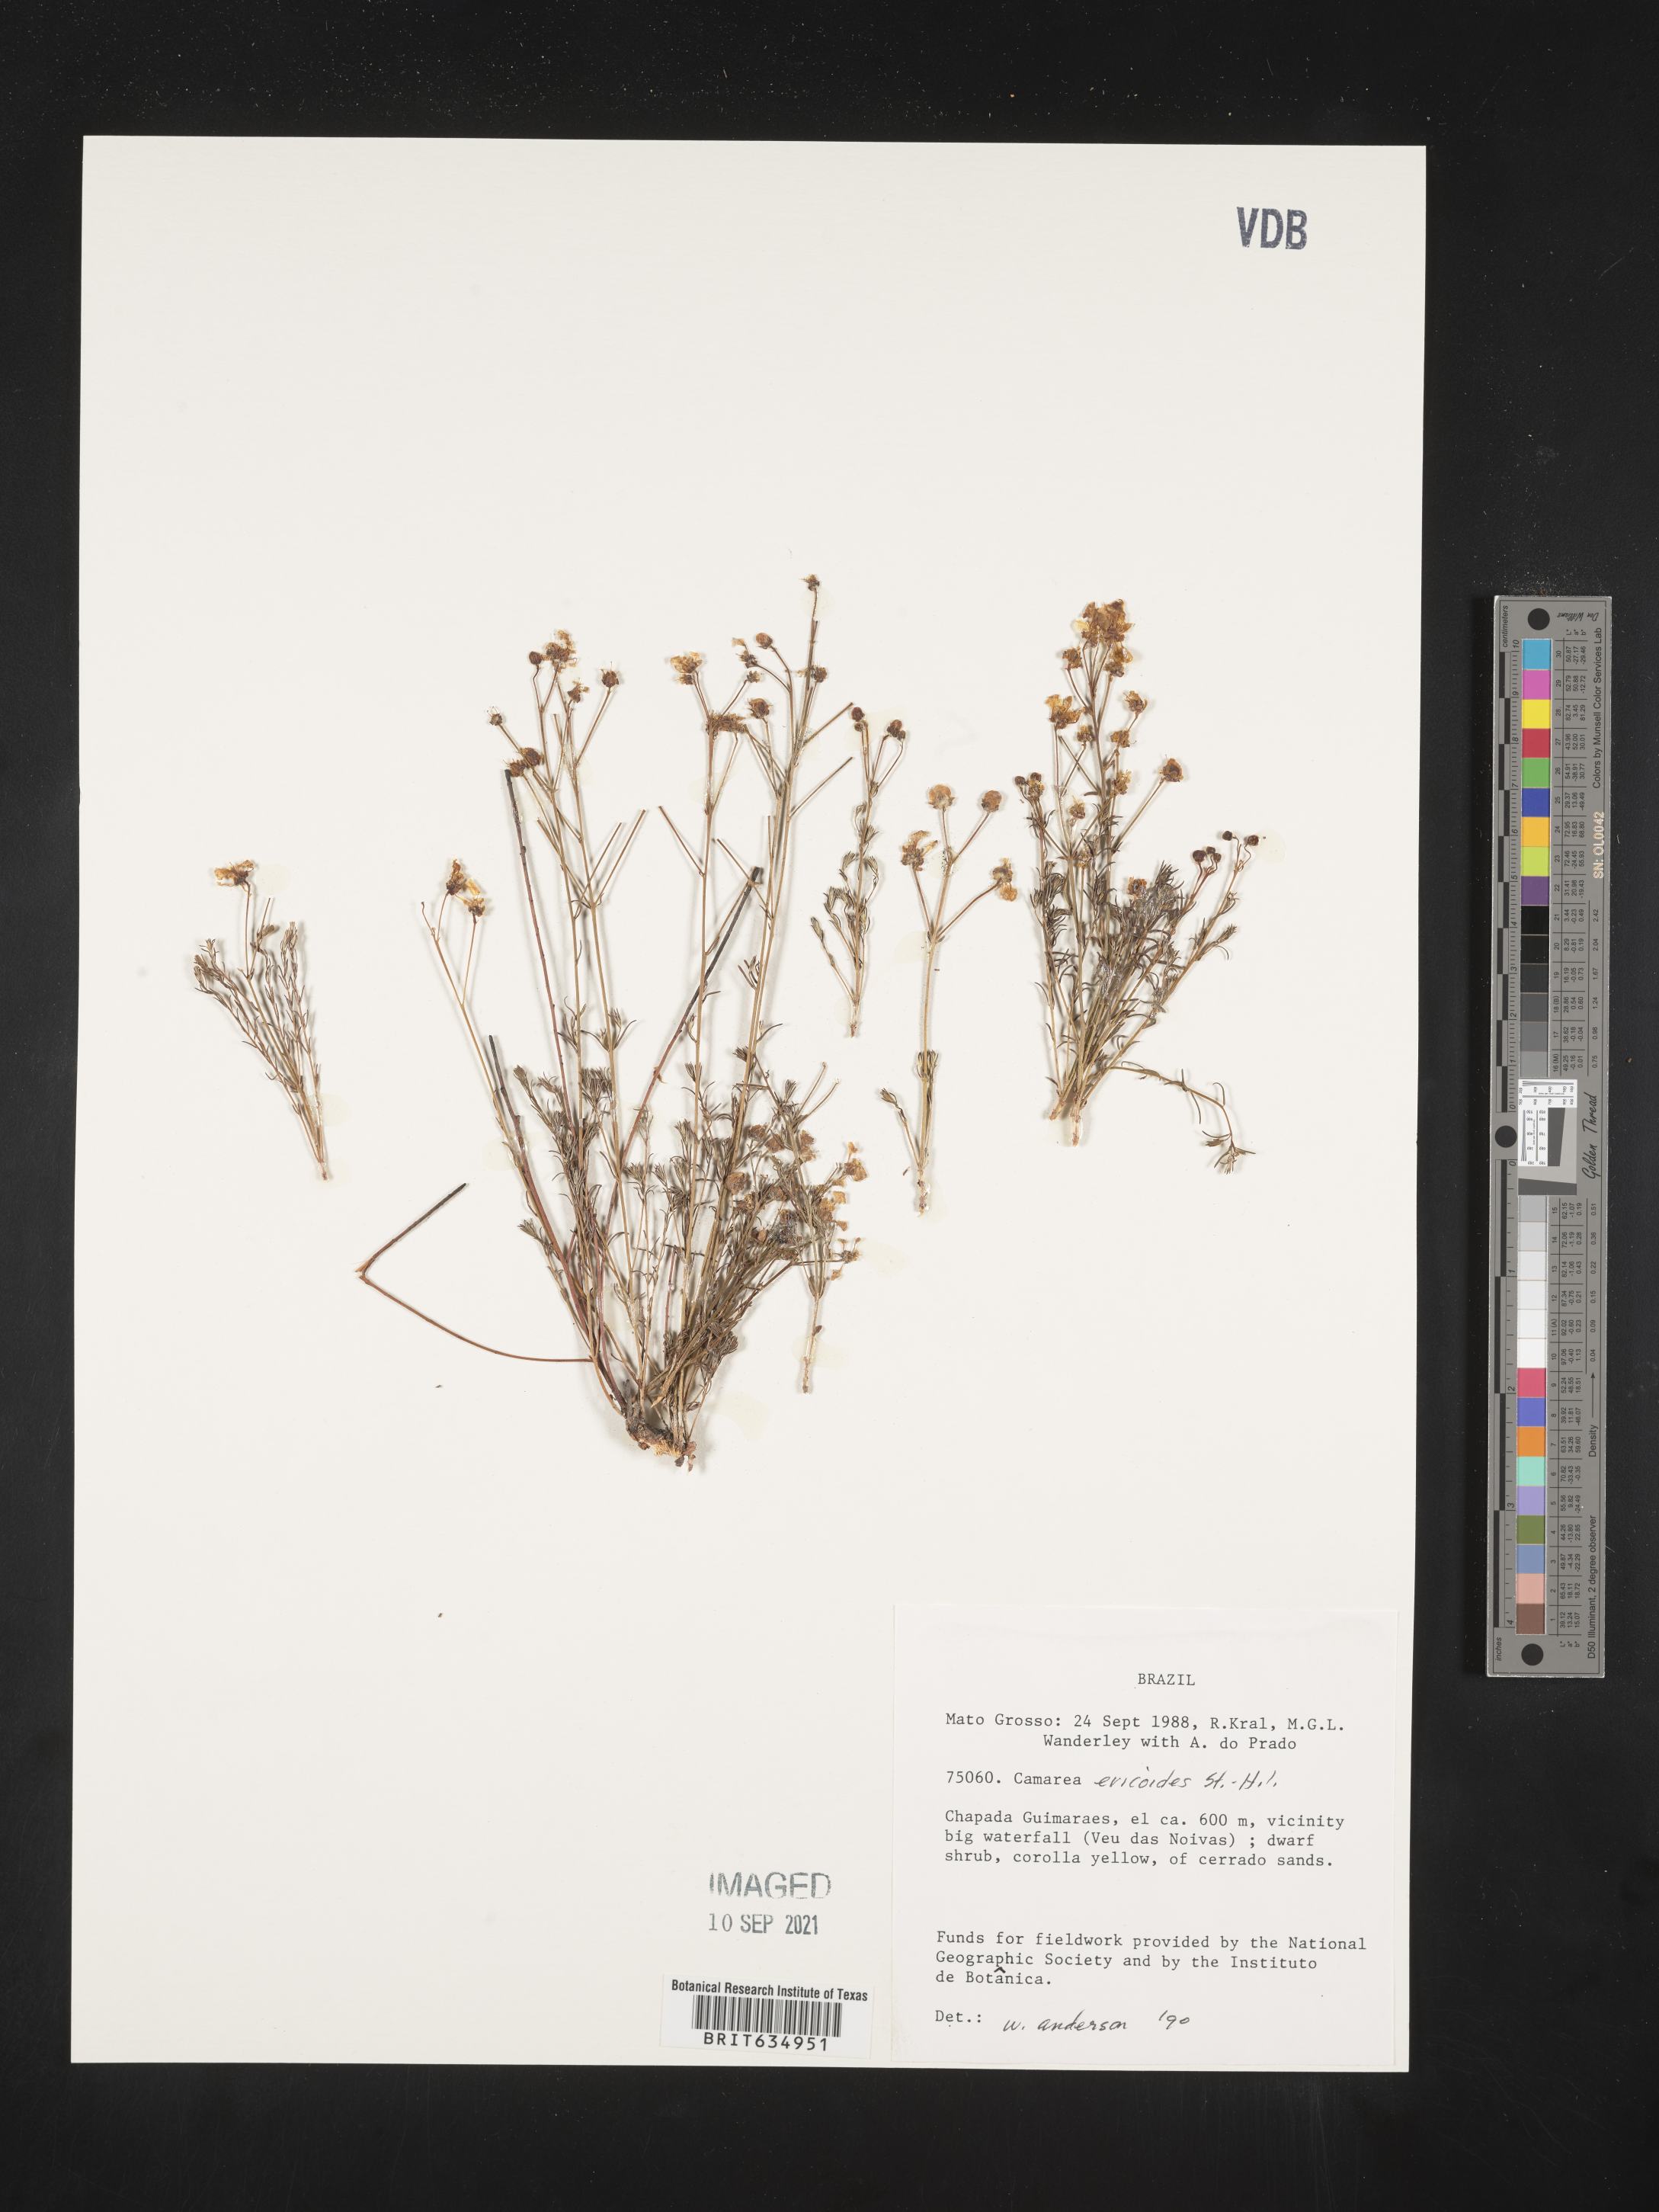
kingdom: Plantae
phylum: Tracheophyta
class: Magnoliopsida
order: Malpighiales
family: Malpighiaceae
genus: Camarea
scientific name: Camarea
